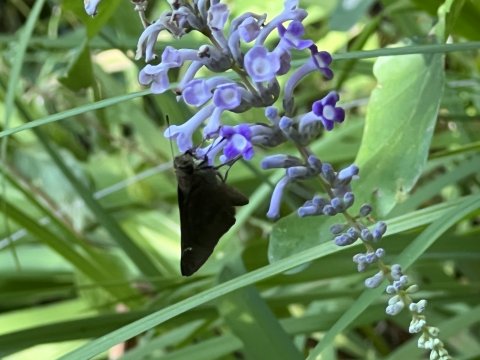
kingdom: Animalia
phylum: Arthropoda
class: Insecta
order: Lepidoptera
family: Hesperiidae
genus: Lerema
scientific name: Lerema accius
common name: Clouded Skipper
